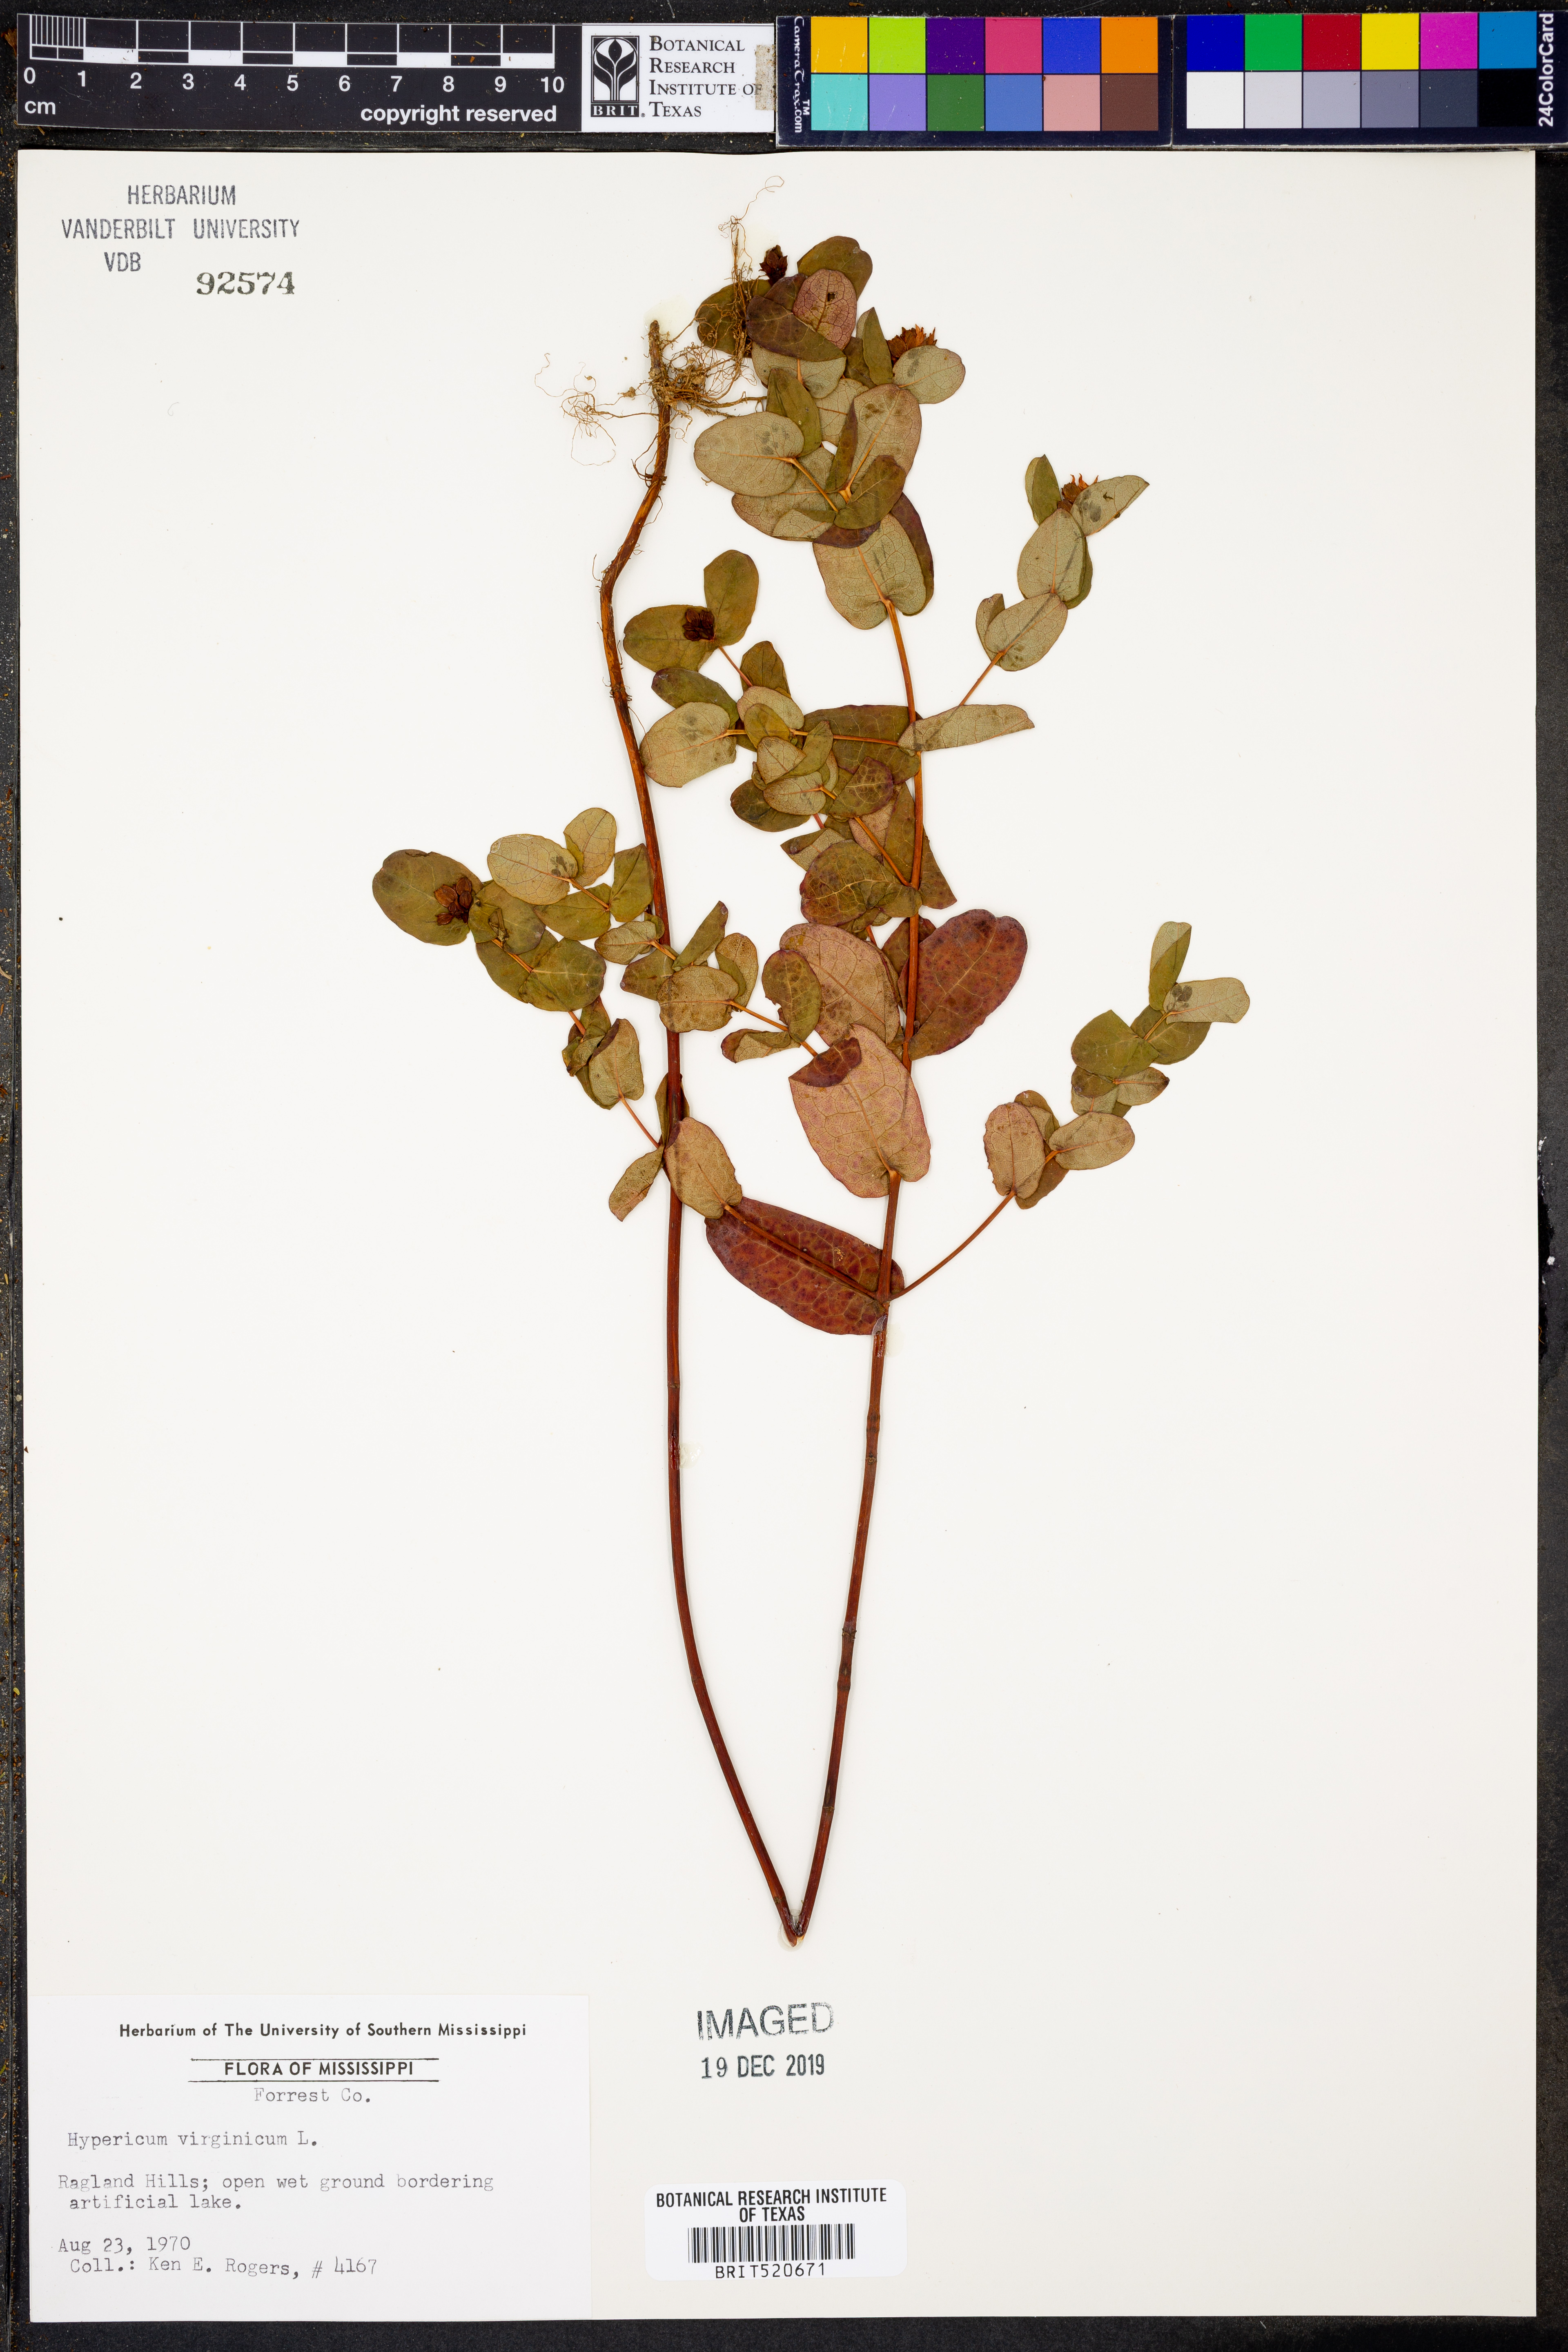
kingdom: Plantae
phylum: Tracheophyta
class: Magnoliopsida
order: Malpighiales
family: Hypericaceae
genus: Triadenum
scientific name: Triadenum virginicum
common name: Marsh st. john's-wort
